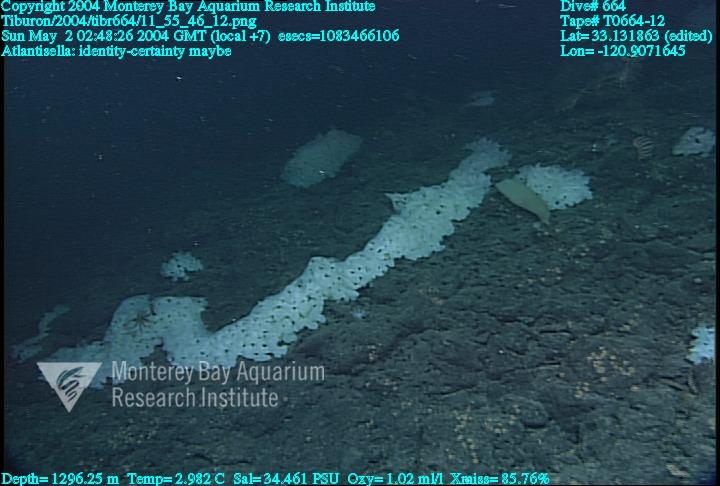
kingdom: Animalia
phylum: Porifera
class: Hexactinellida
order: Lyssacinosida
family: Euplectellidae
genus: Atlantisella
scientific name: Atlantisella
